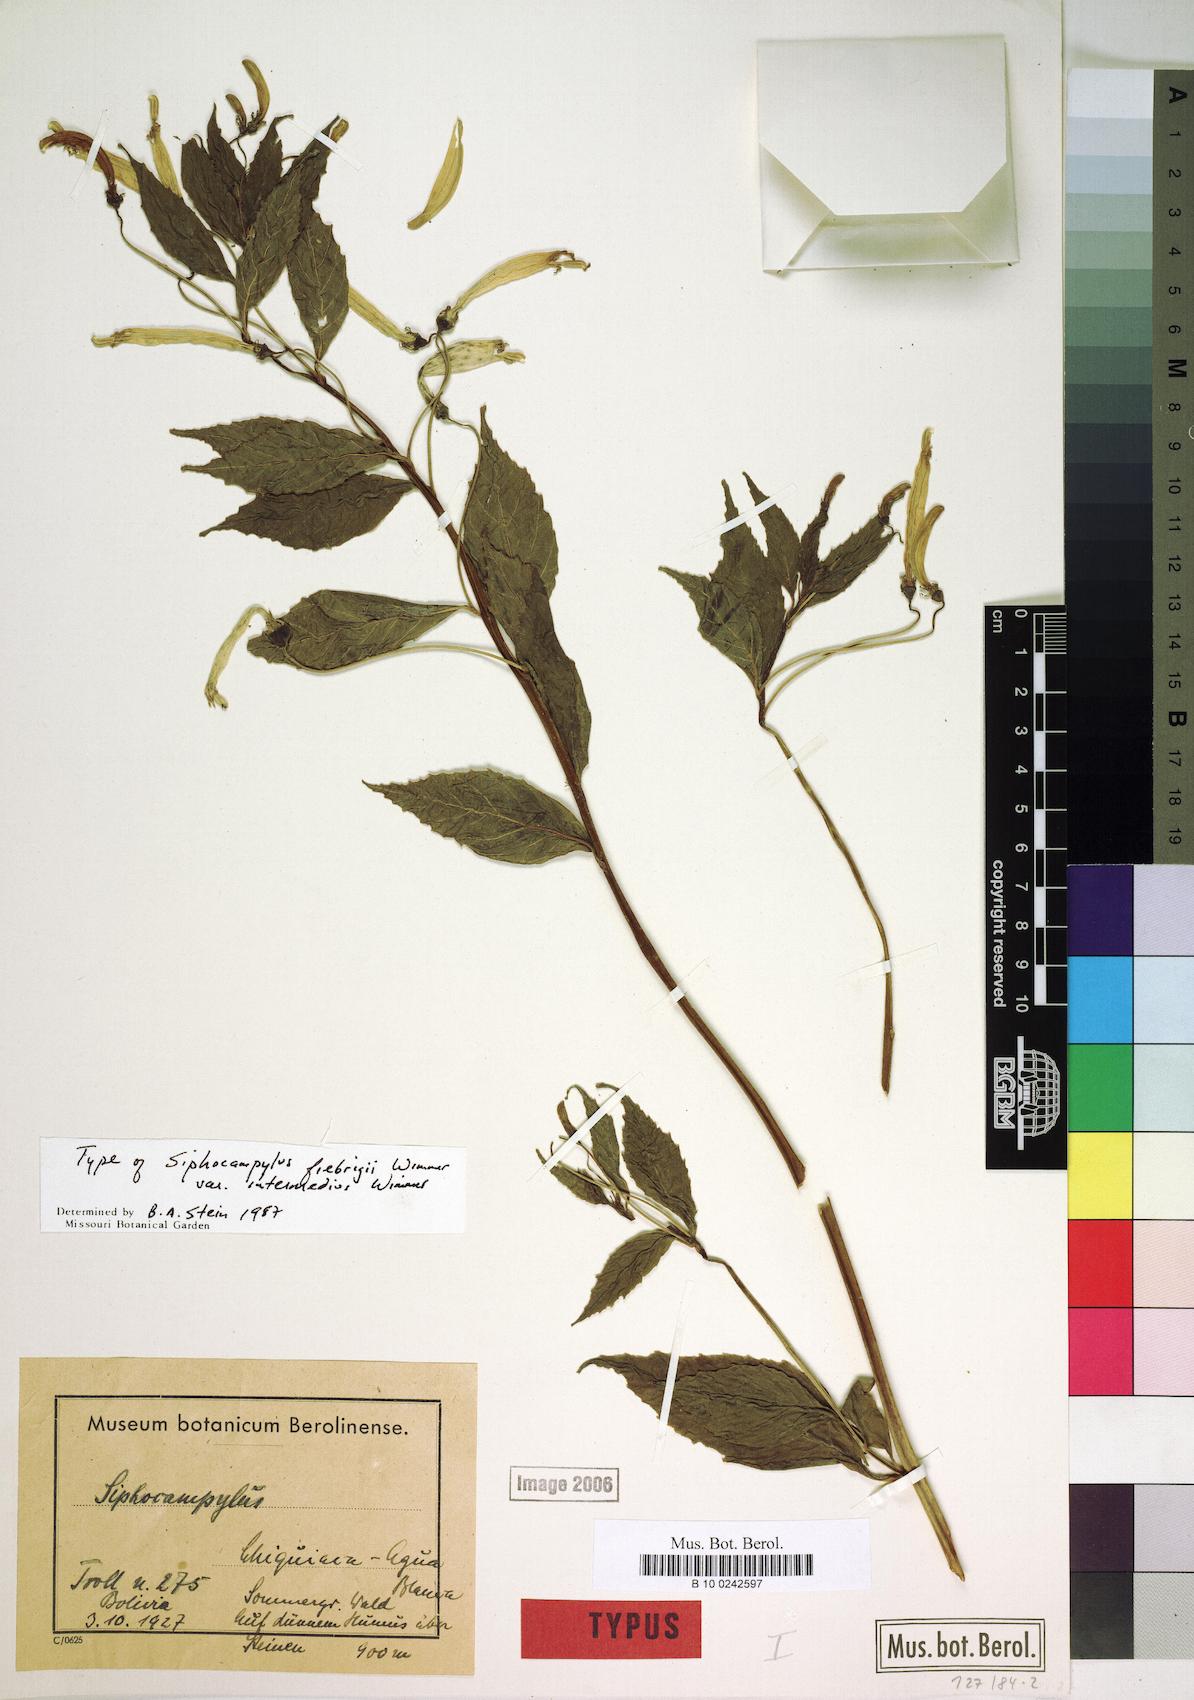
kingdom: Plantae
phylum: Tracheophyta
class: Magnoliopsida
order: Asterales
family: Campanulaceae
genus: Siphocampylus
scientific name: Siphocampylus fiebrigii
